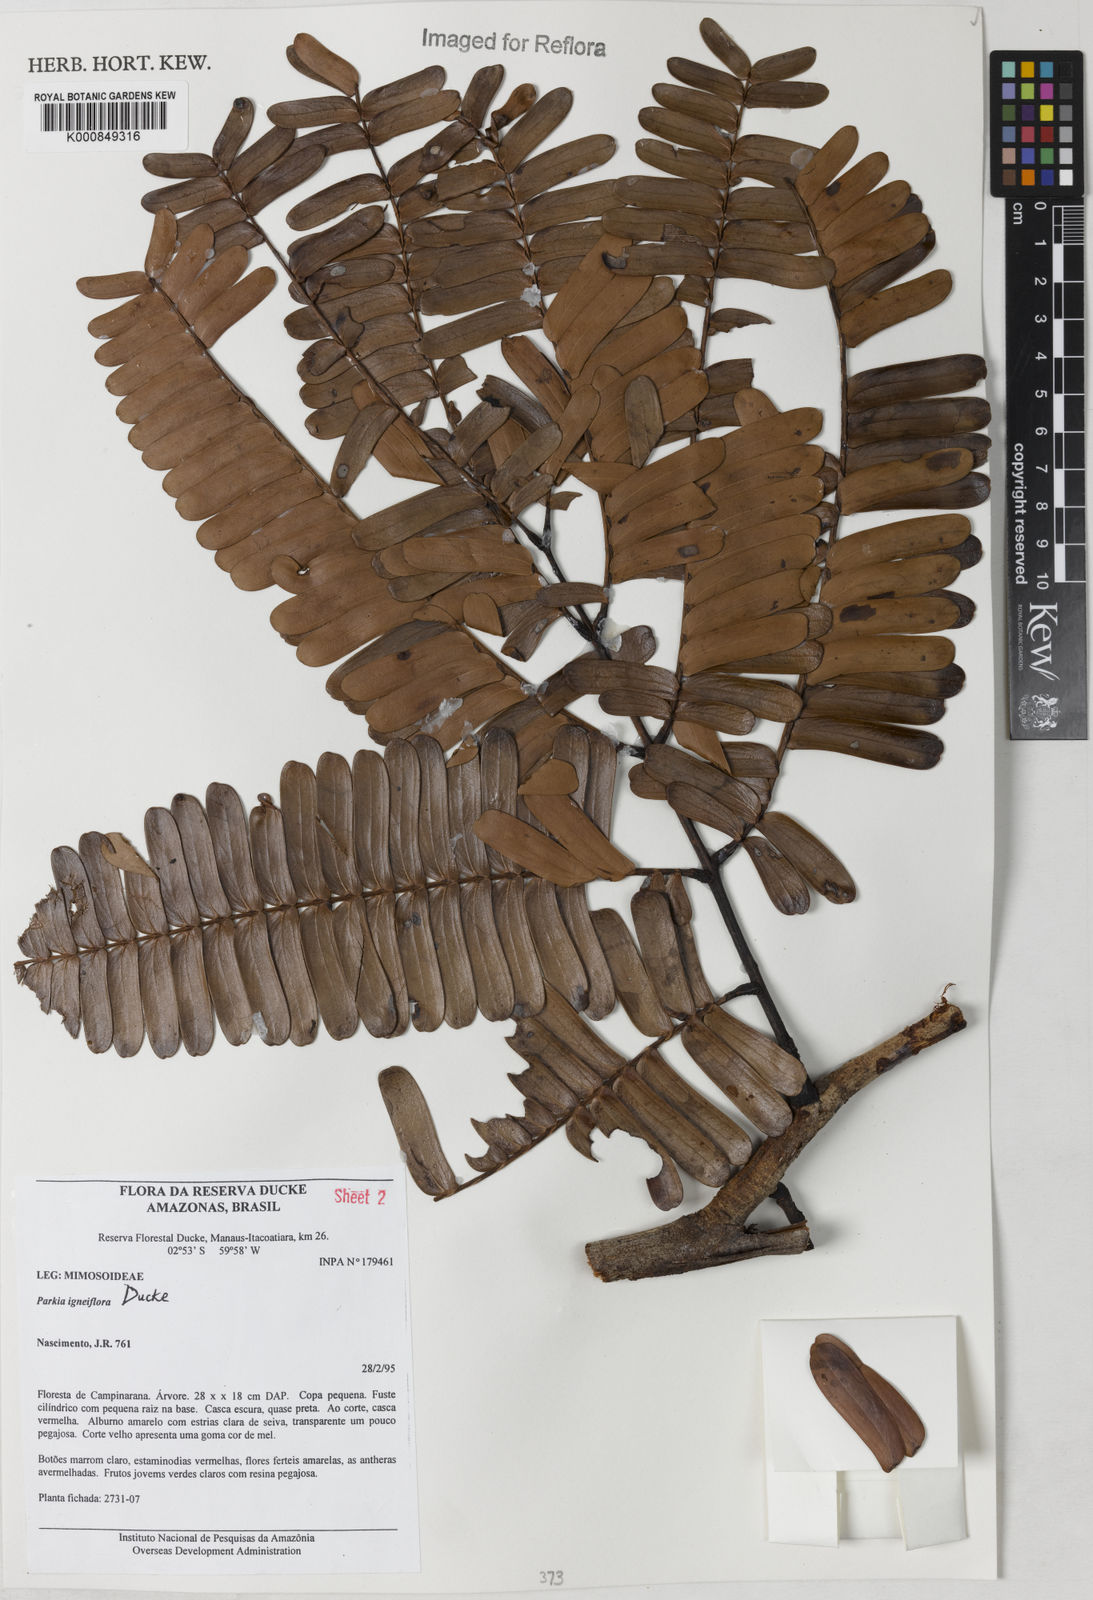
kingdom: Plantae
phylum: Tracheophyta
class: Magnoliopsida
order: Fabales
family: Fabaceae
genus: Parkia
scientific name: Parkia igneiflora
